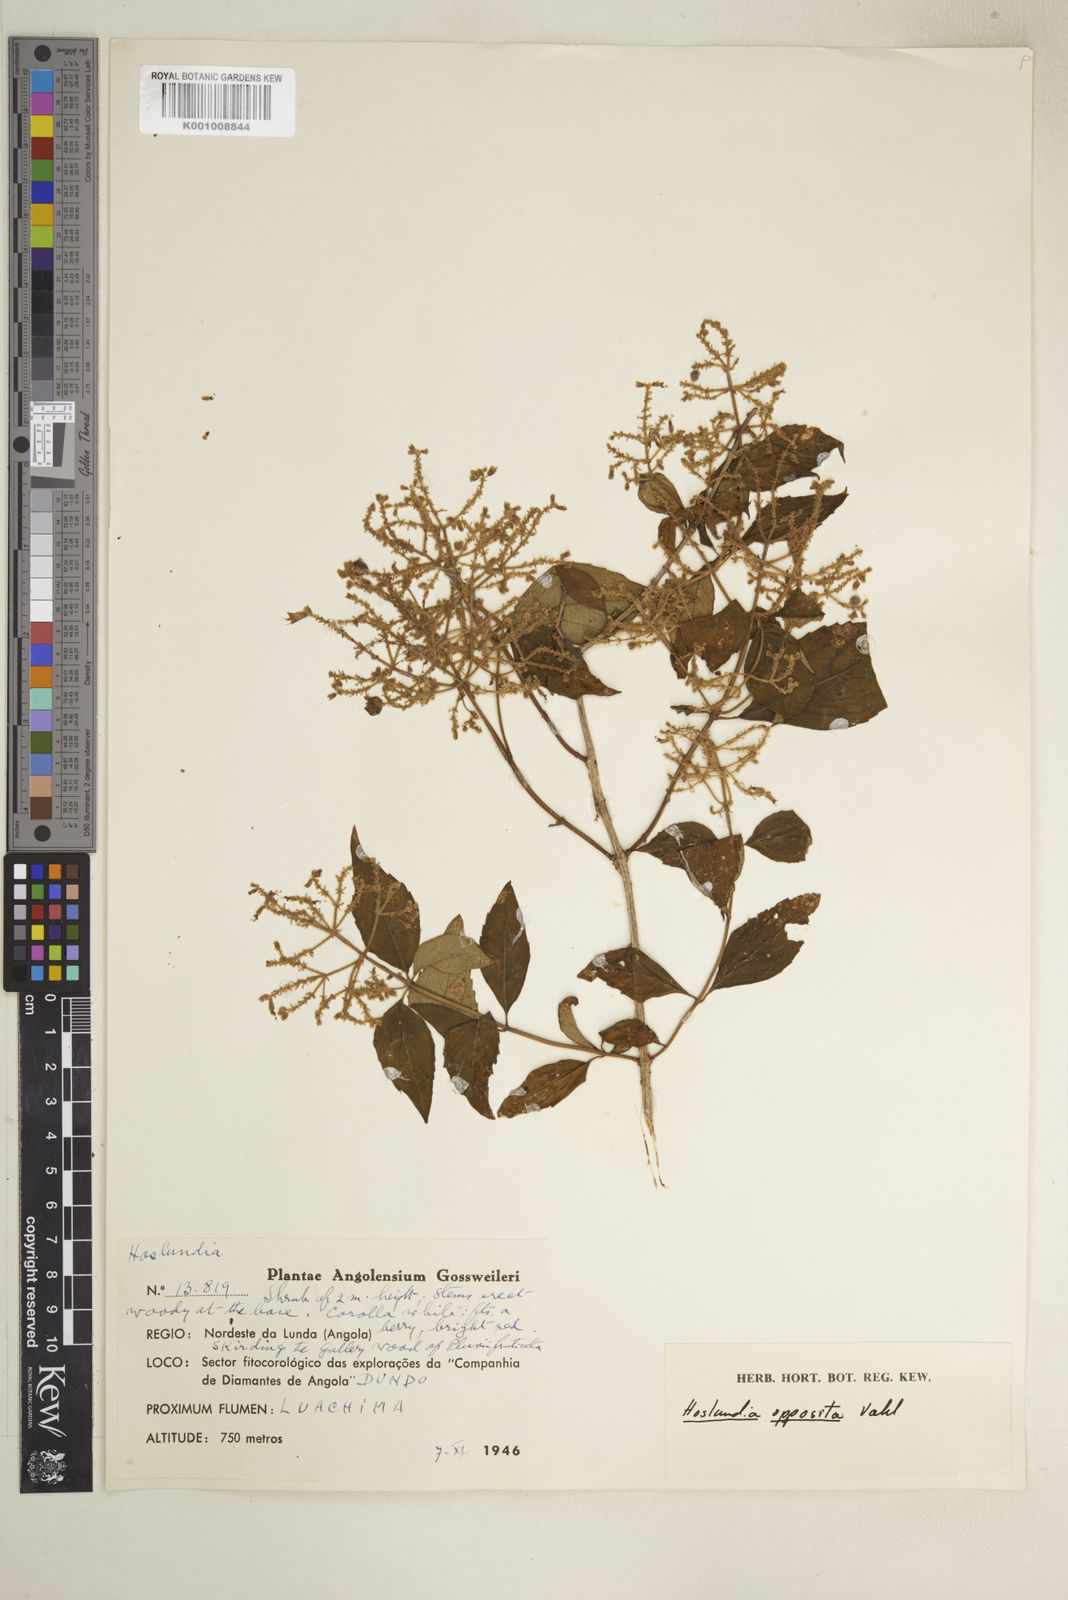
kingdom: Plantae
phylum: Tracheophyta
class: Magnoliopsida
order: Lamiales
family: Lamiaceae
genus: Hoslundia
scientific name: Hoslundia opposita
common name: Kamyuye
